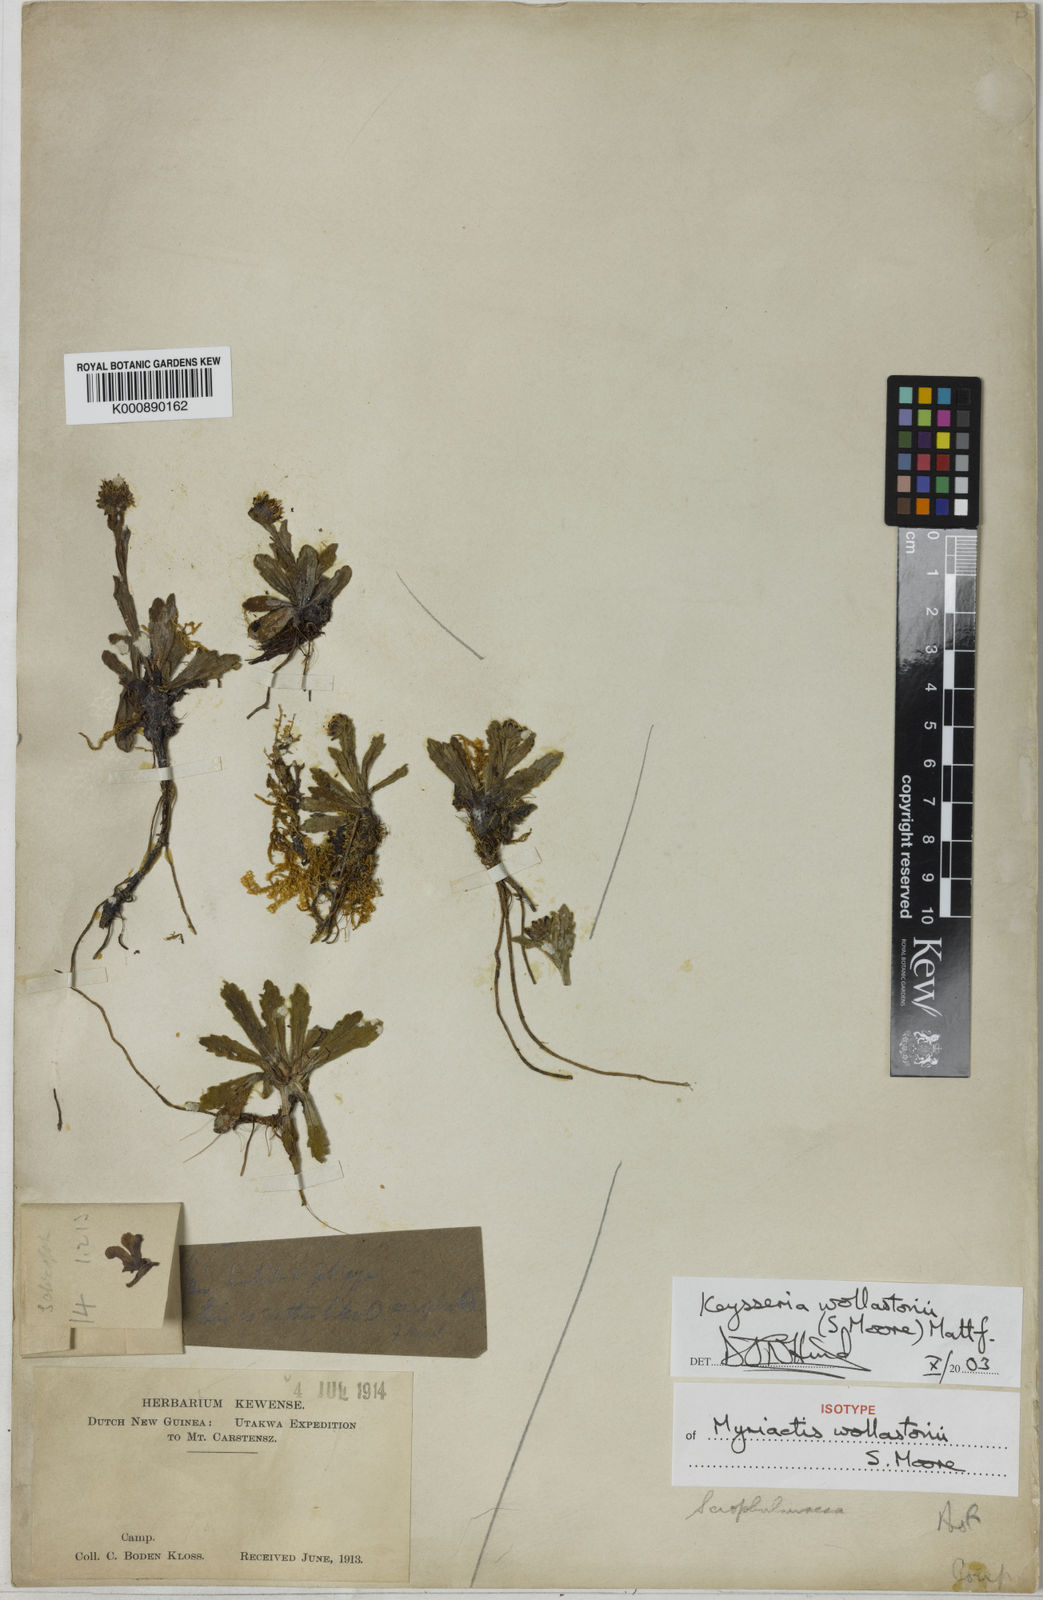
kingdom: Plantae
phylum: Tracheophyta
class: Magnoliopsida
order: Asterales
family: Asteraceae
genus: Keysseria
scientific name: Keysseria wollastonii
